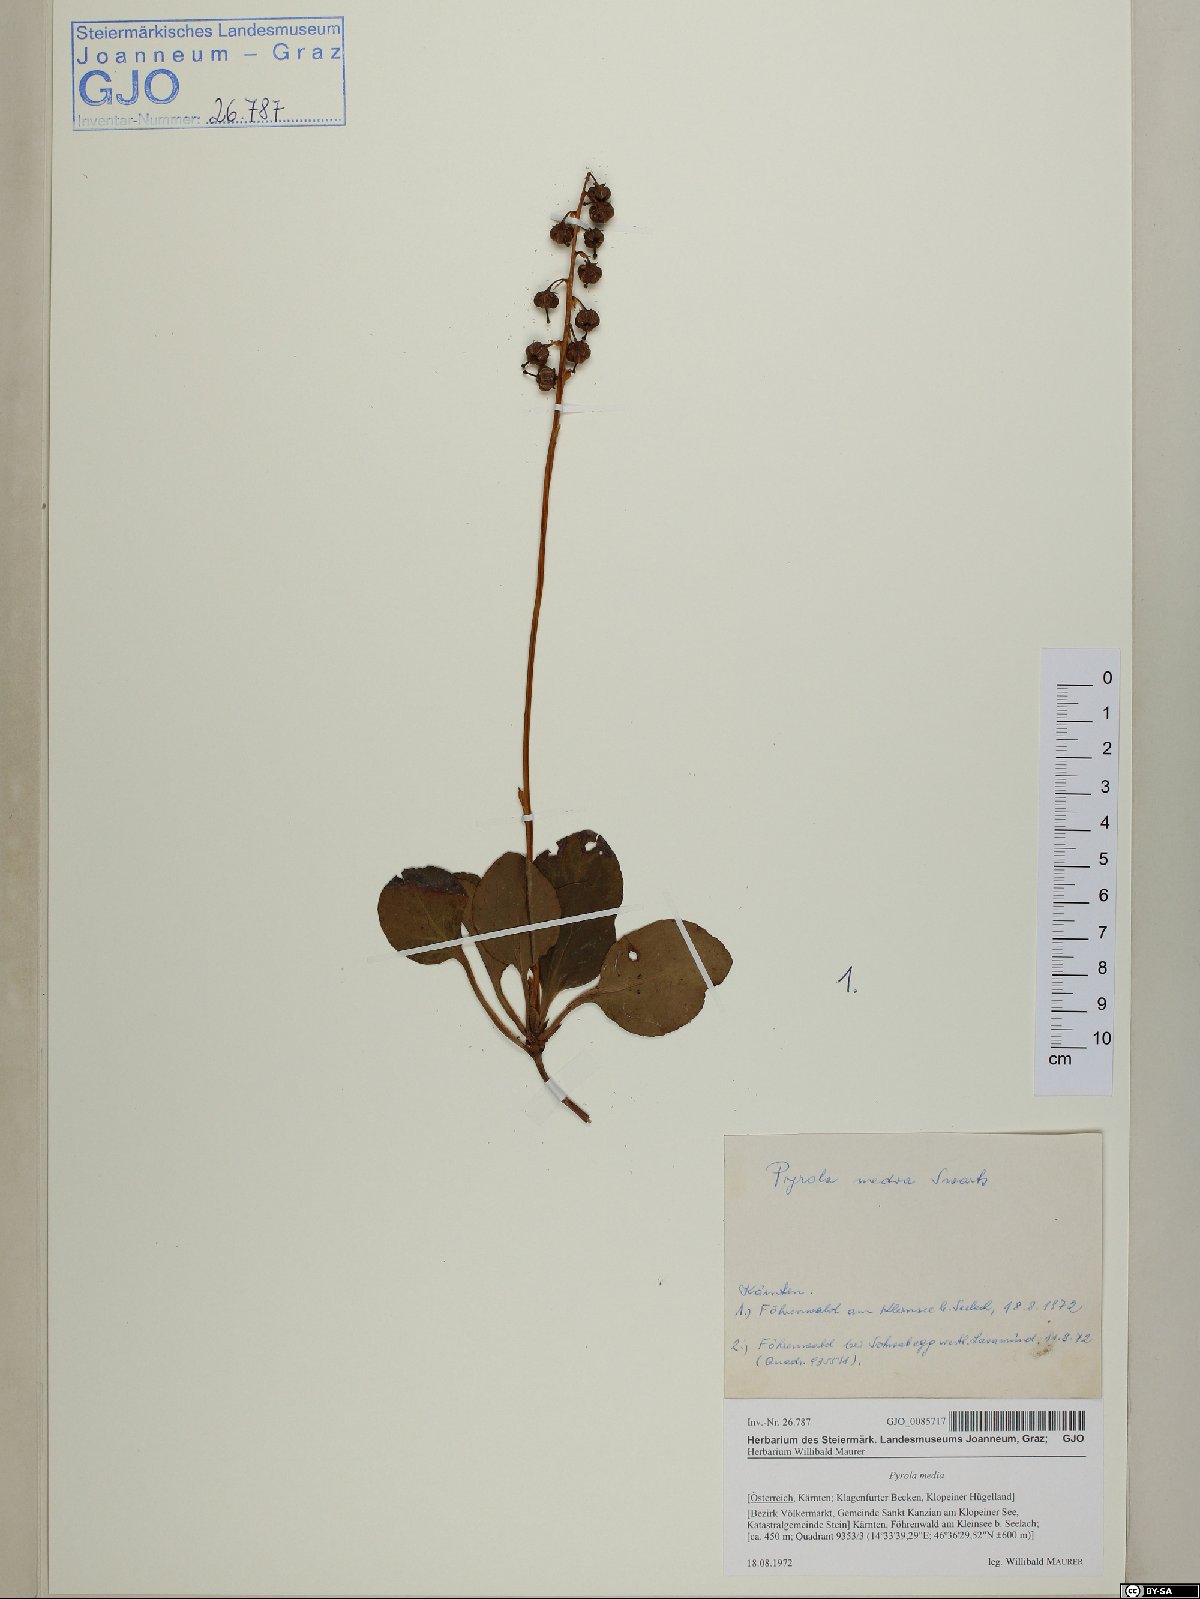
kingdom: Plantae
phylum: Tracheophyta
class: Magnoliopsida
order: Ericales
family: Ericaceae
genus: Pyrola
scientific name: Pyrola media
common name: Intermediate wintergreen
